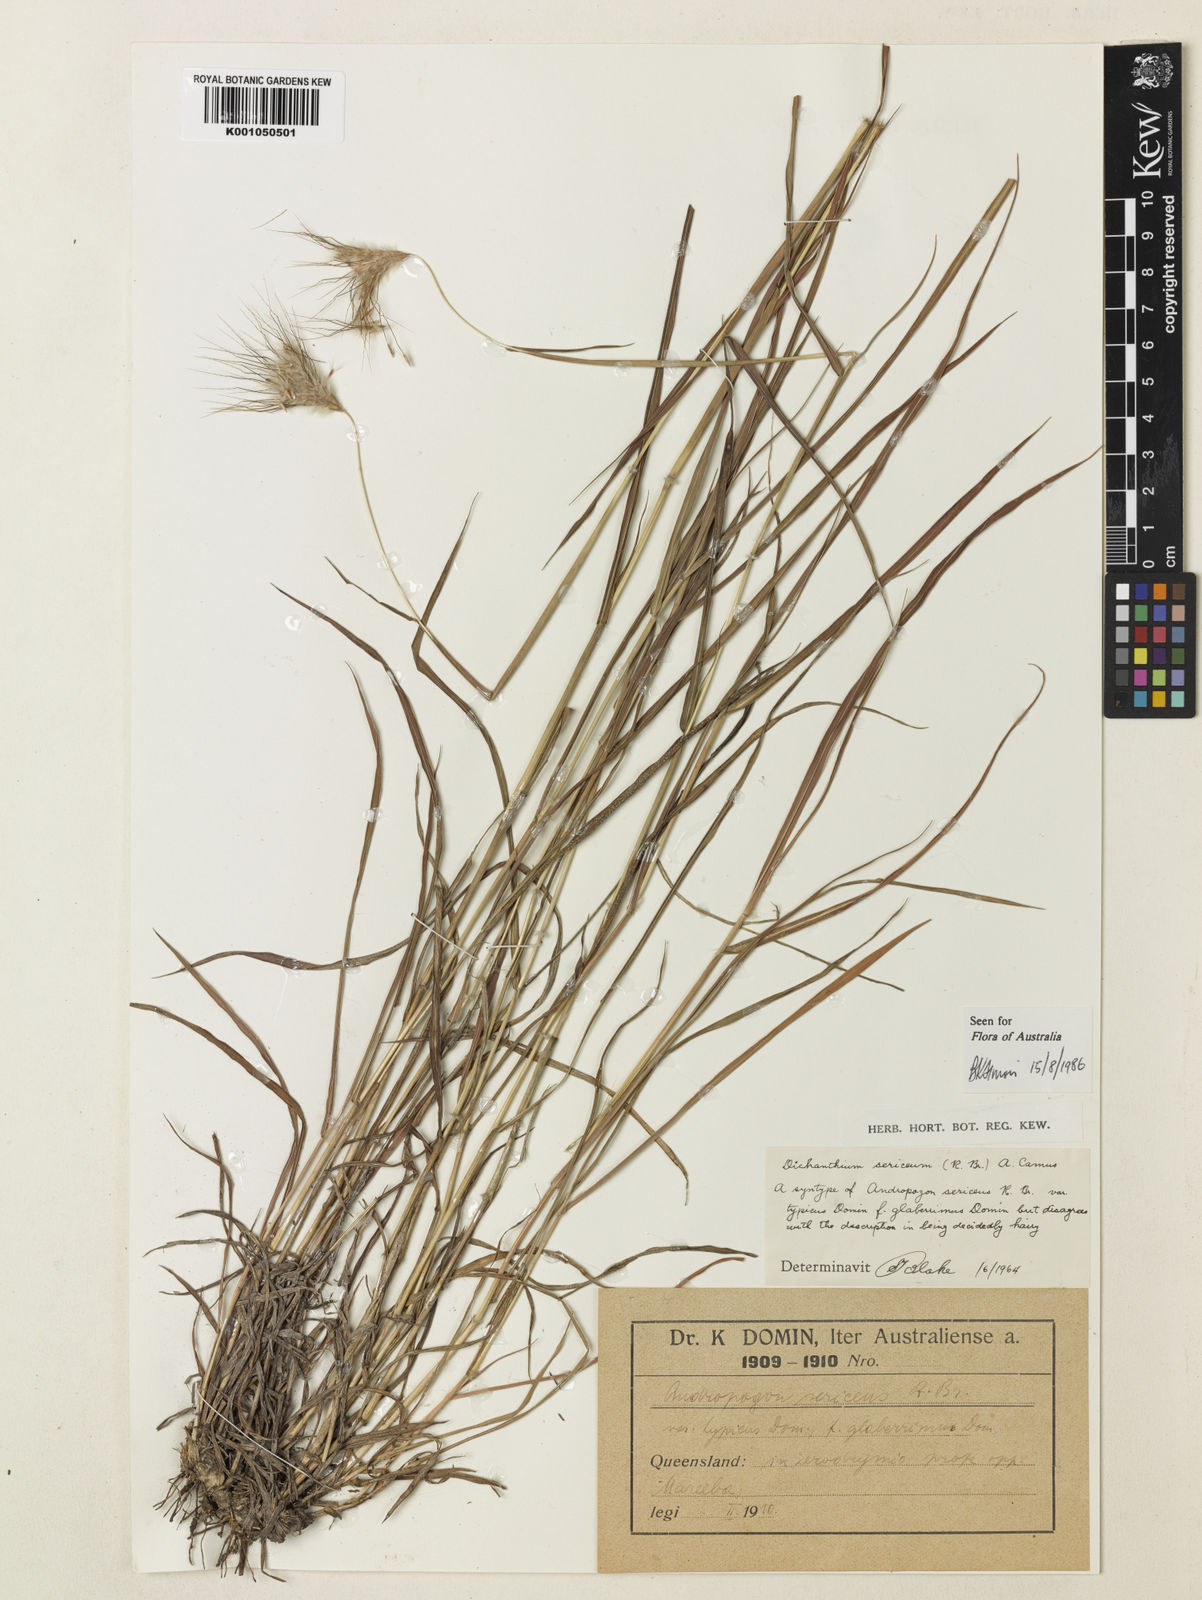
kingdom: Plantae
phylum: Tracheophyta
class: Liliopsida
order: Poales
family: Poaceae
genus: Dichanthium
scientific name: Dichanthium sericeum
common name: Silky bluestem
